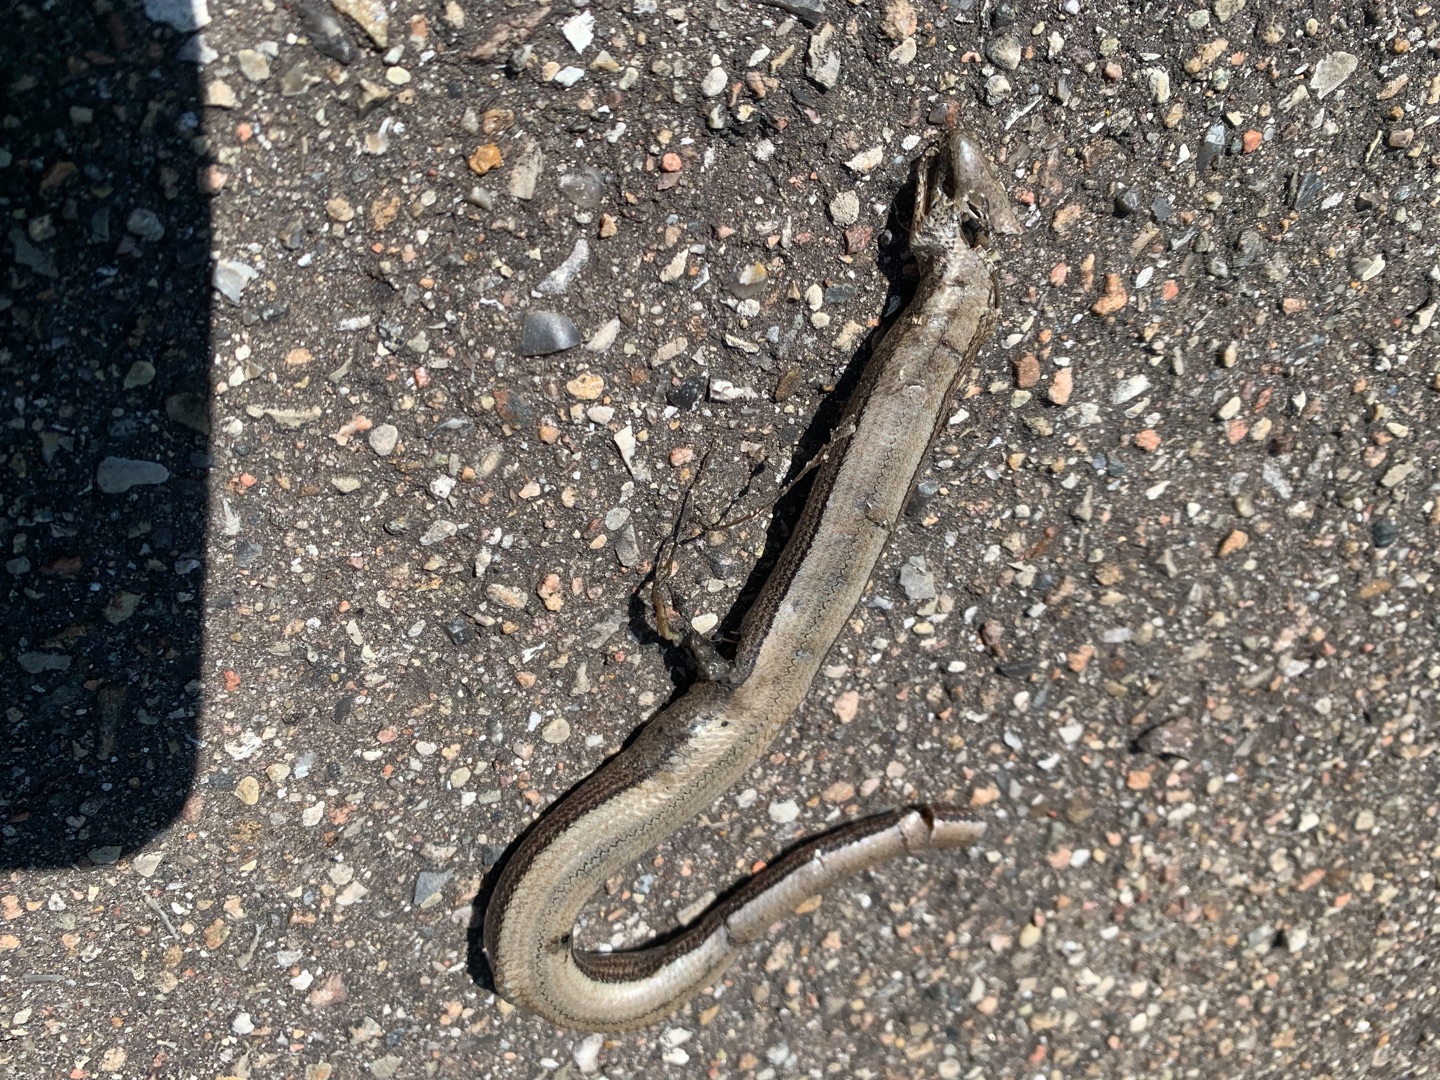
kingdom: Animalia
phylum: Chordata
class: Squamata
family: Anguidae
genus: Anguis
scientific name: Anguis fragilis
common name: Stålorm
